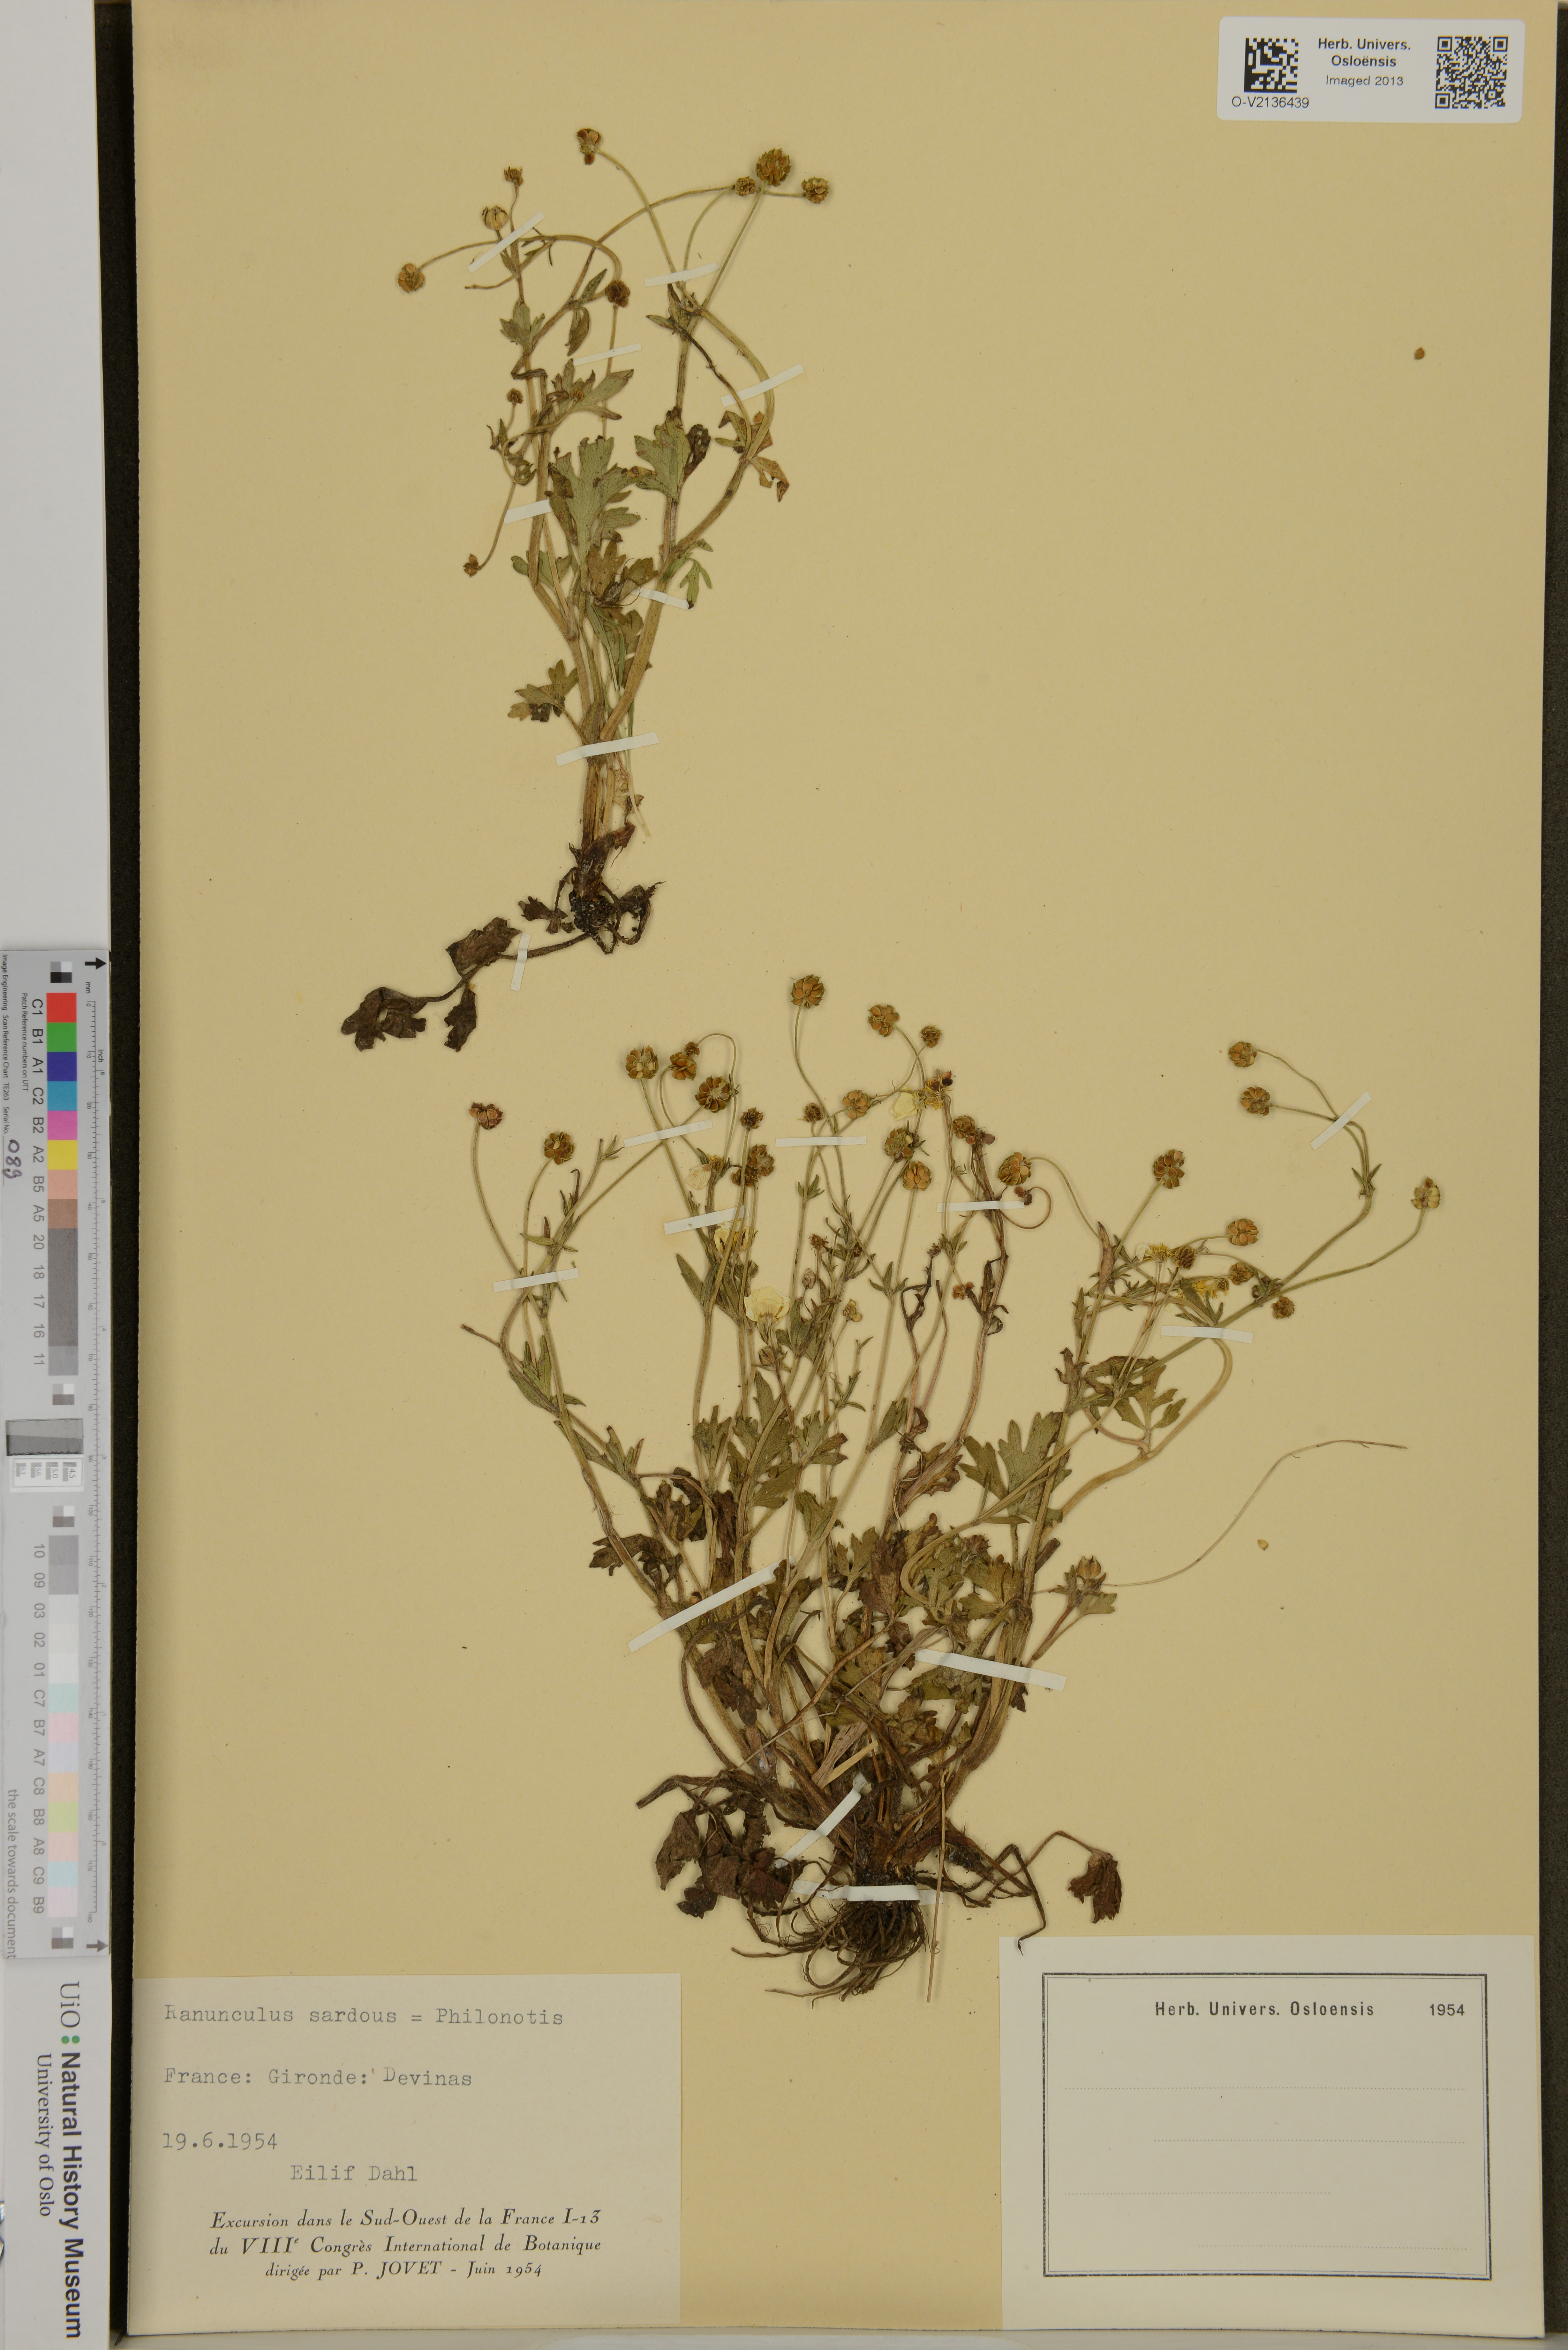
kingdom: Plantae
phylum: Tracheophyta
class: Magnoliopsida
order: Ranunculales
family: Ranunculaceae
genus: Ranunculus
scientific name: Ranunculus sardous
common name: Hairy buttercup
